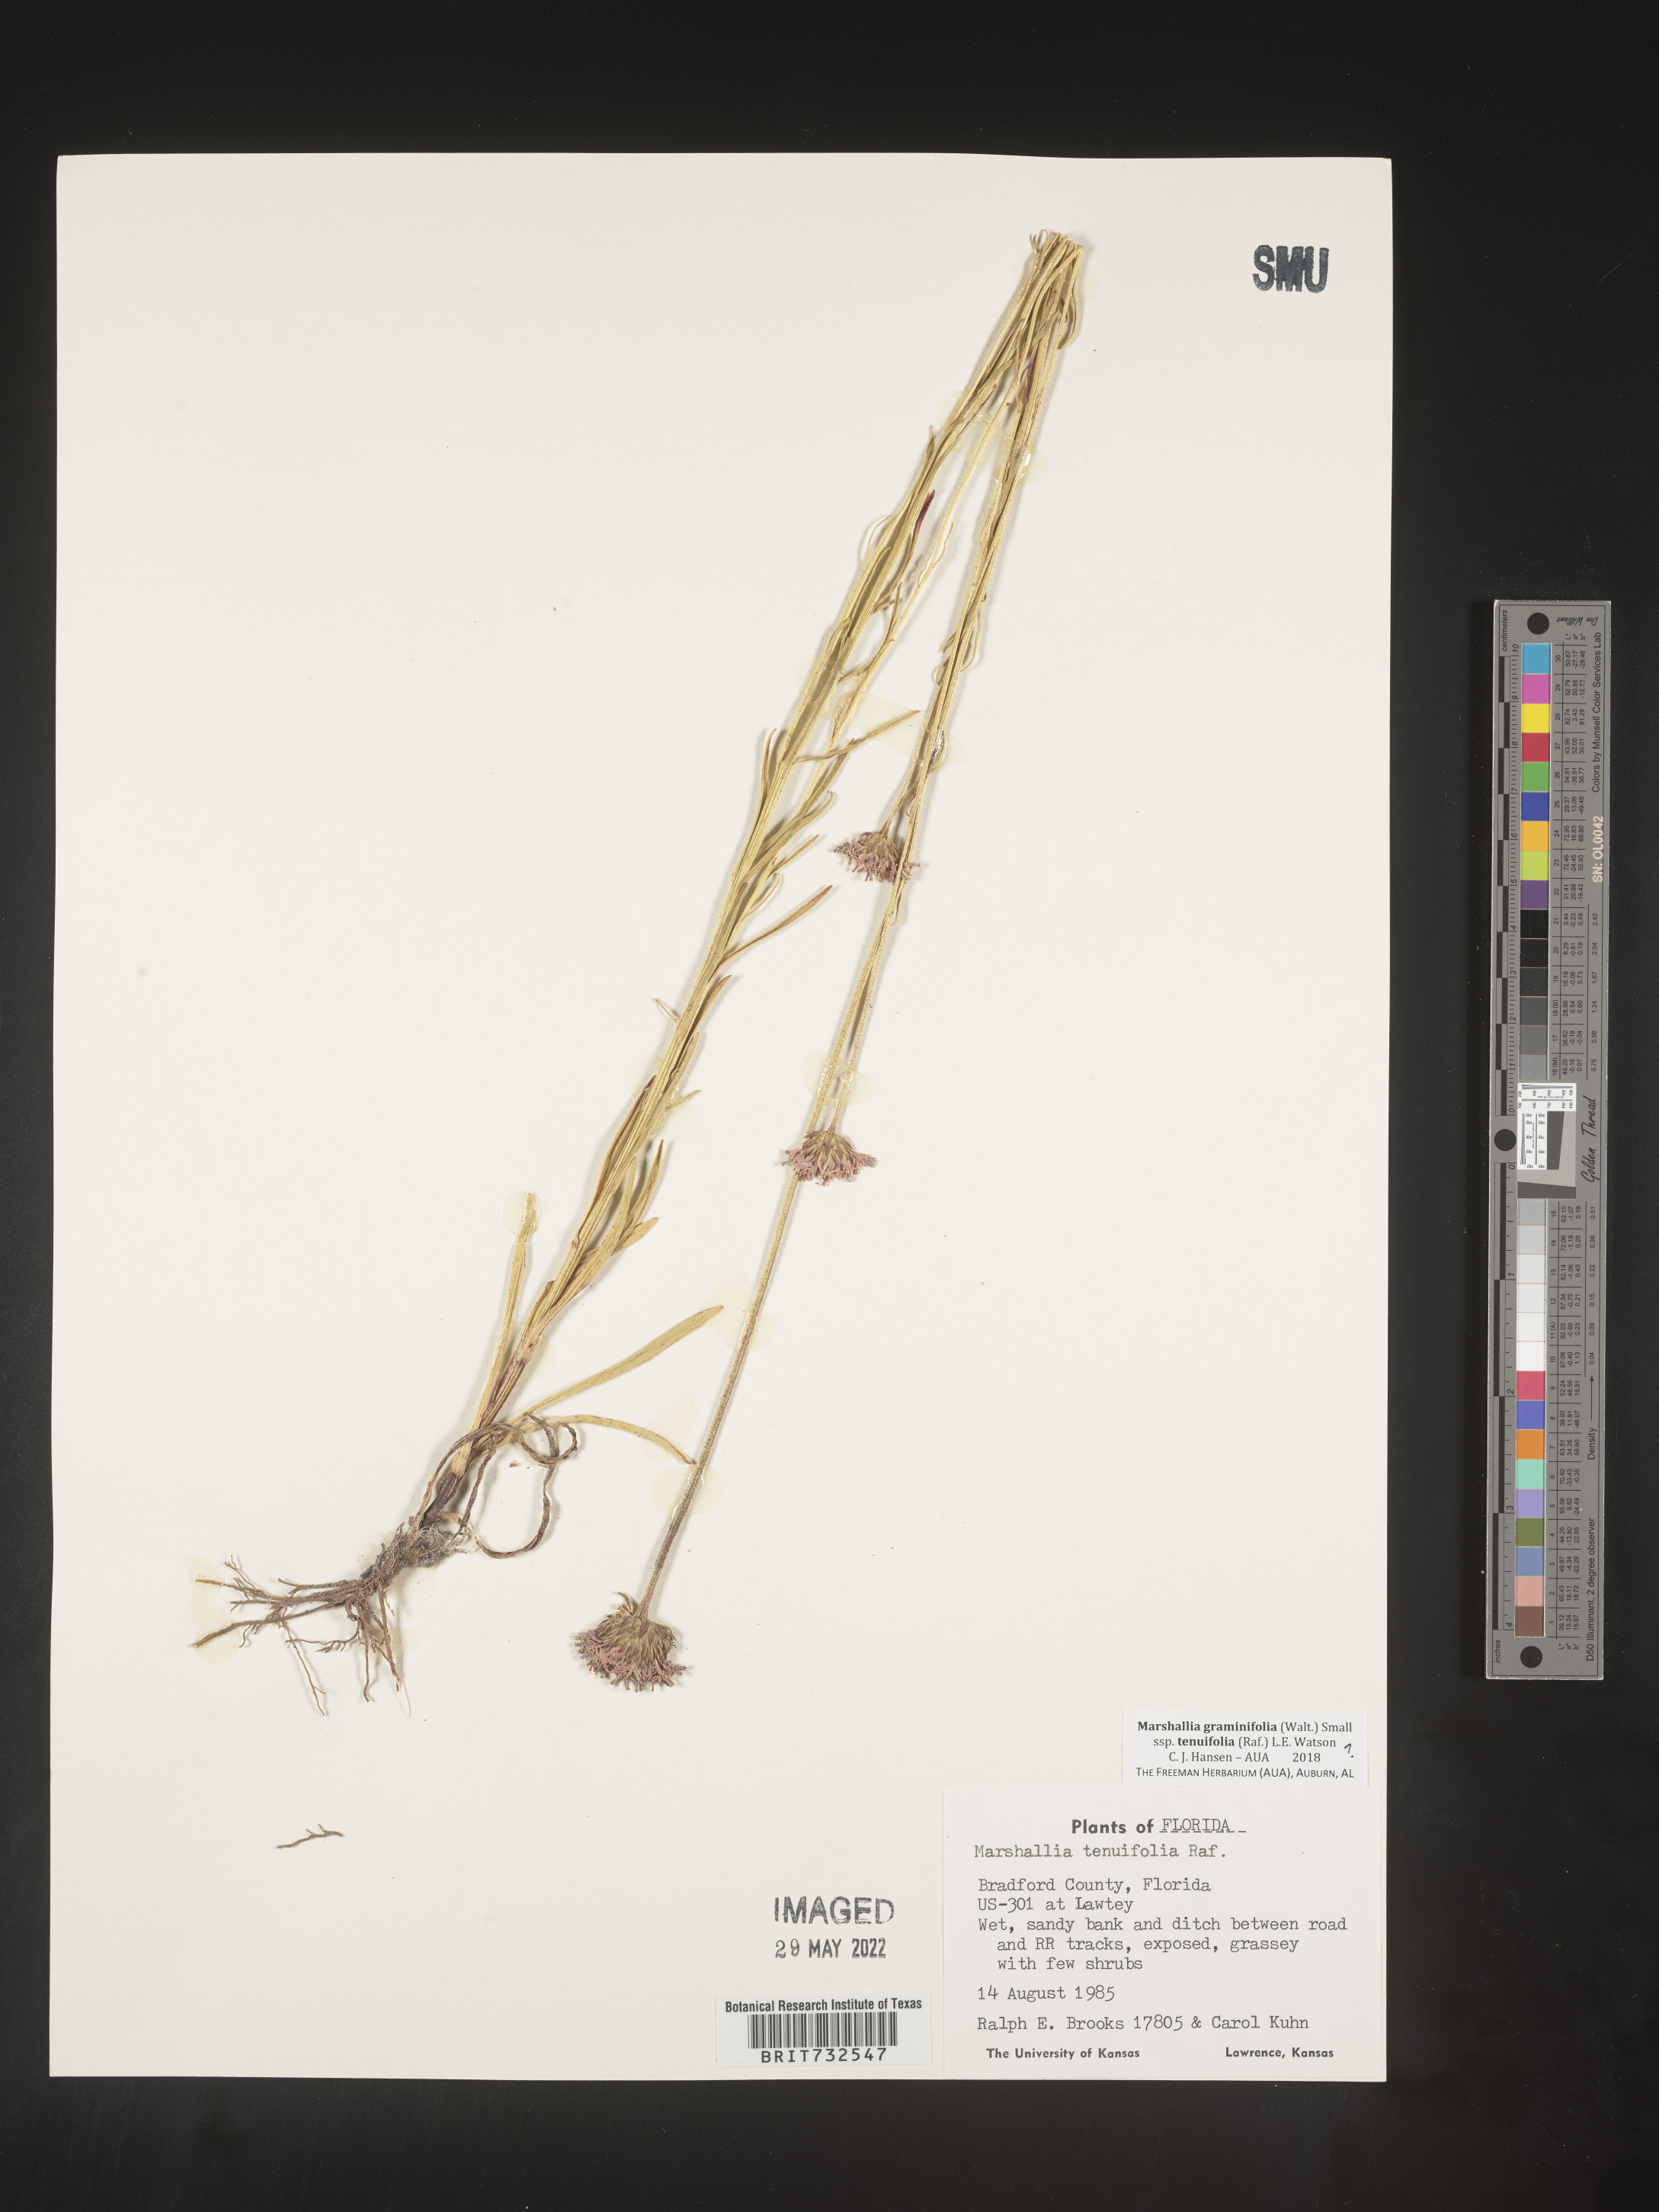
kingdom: Plantae
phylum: Tracheophyta
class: Magnoliopsida
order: Asterales
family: Asteraceae
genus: Marshallia
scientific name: Marshallia graminifolia
